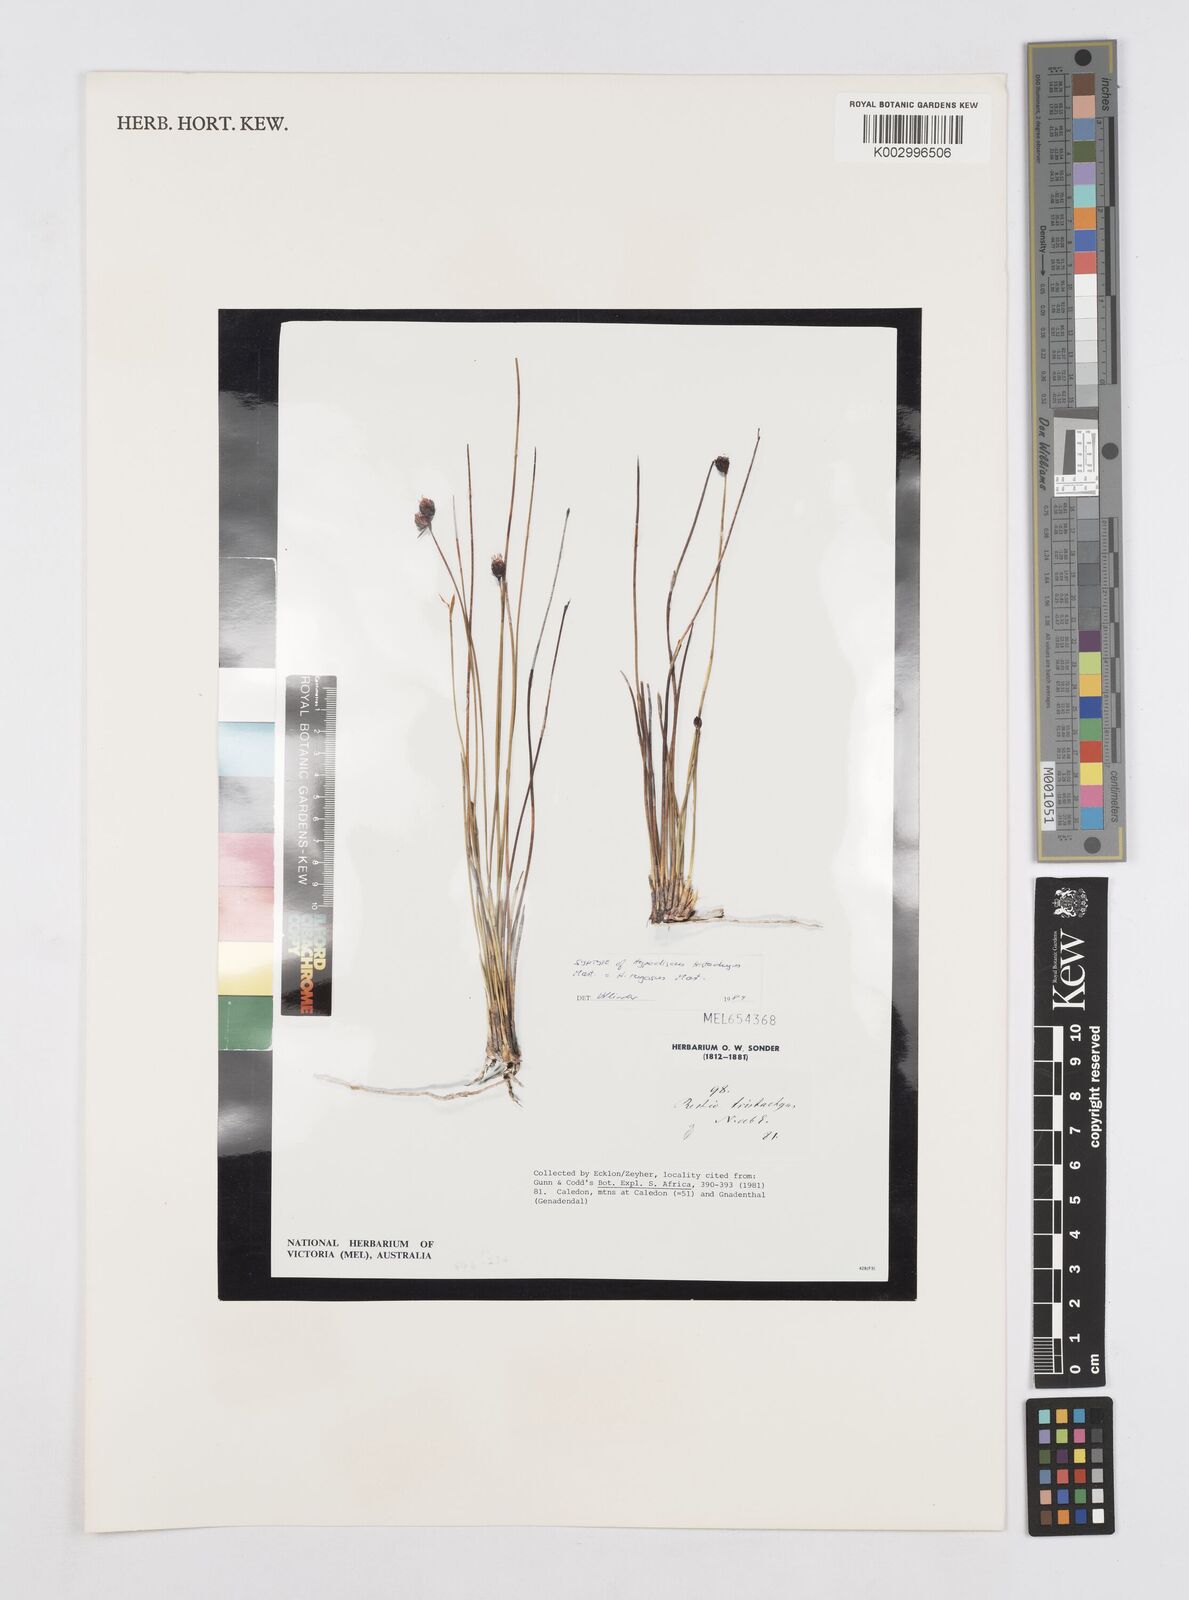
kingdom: Plantae
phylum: Tracheophyta
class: Liliopsida
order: Poales
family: Restionaceae
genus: Hypodiscus
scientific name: Hypodiscus rugosus
